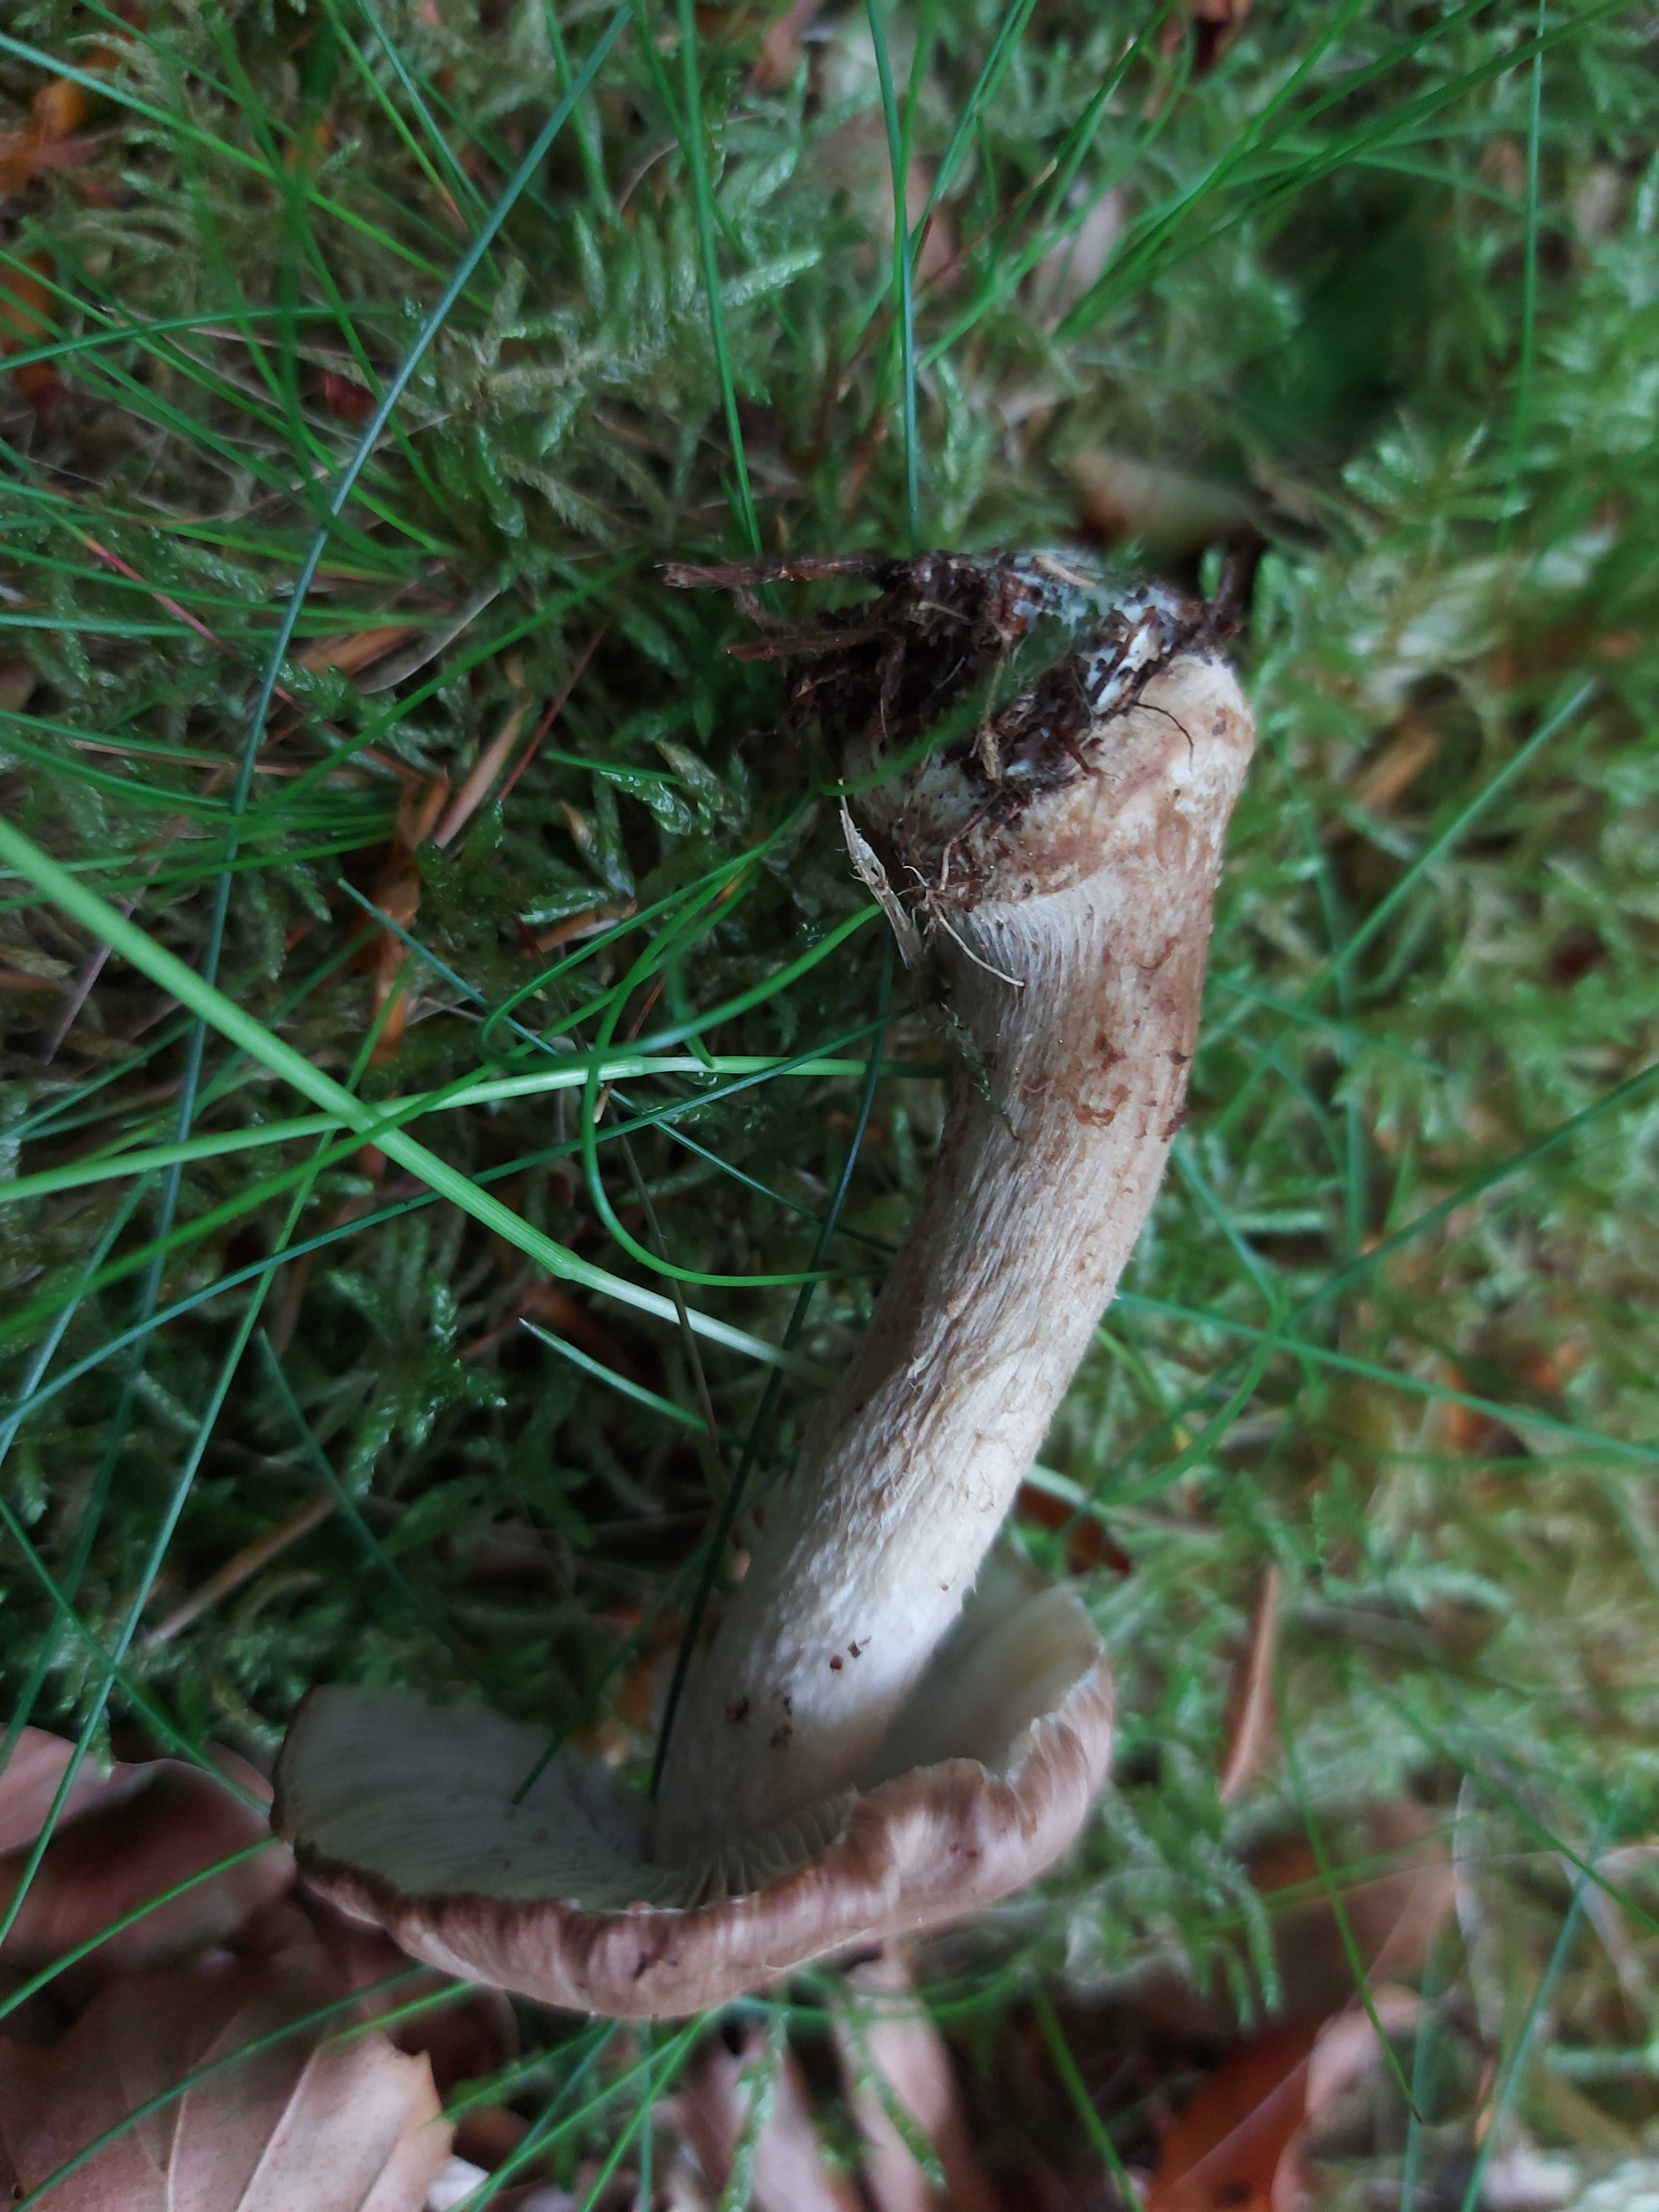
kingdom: Fungi
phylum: Basidiomycota
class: Agaricomycetes
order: Agaricales
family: Inocybaceae
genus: Inocybe
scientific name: Inocybe
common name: trævlhat
